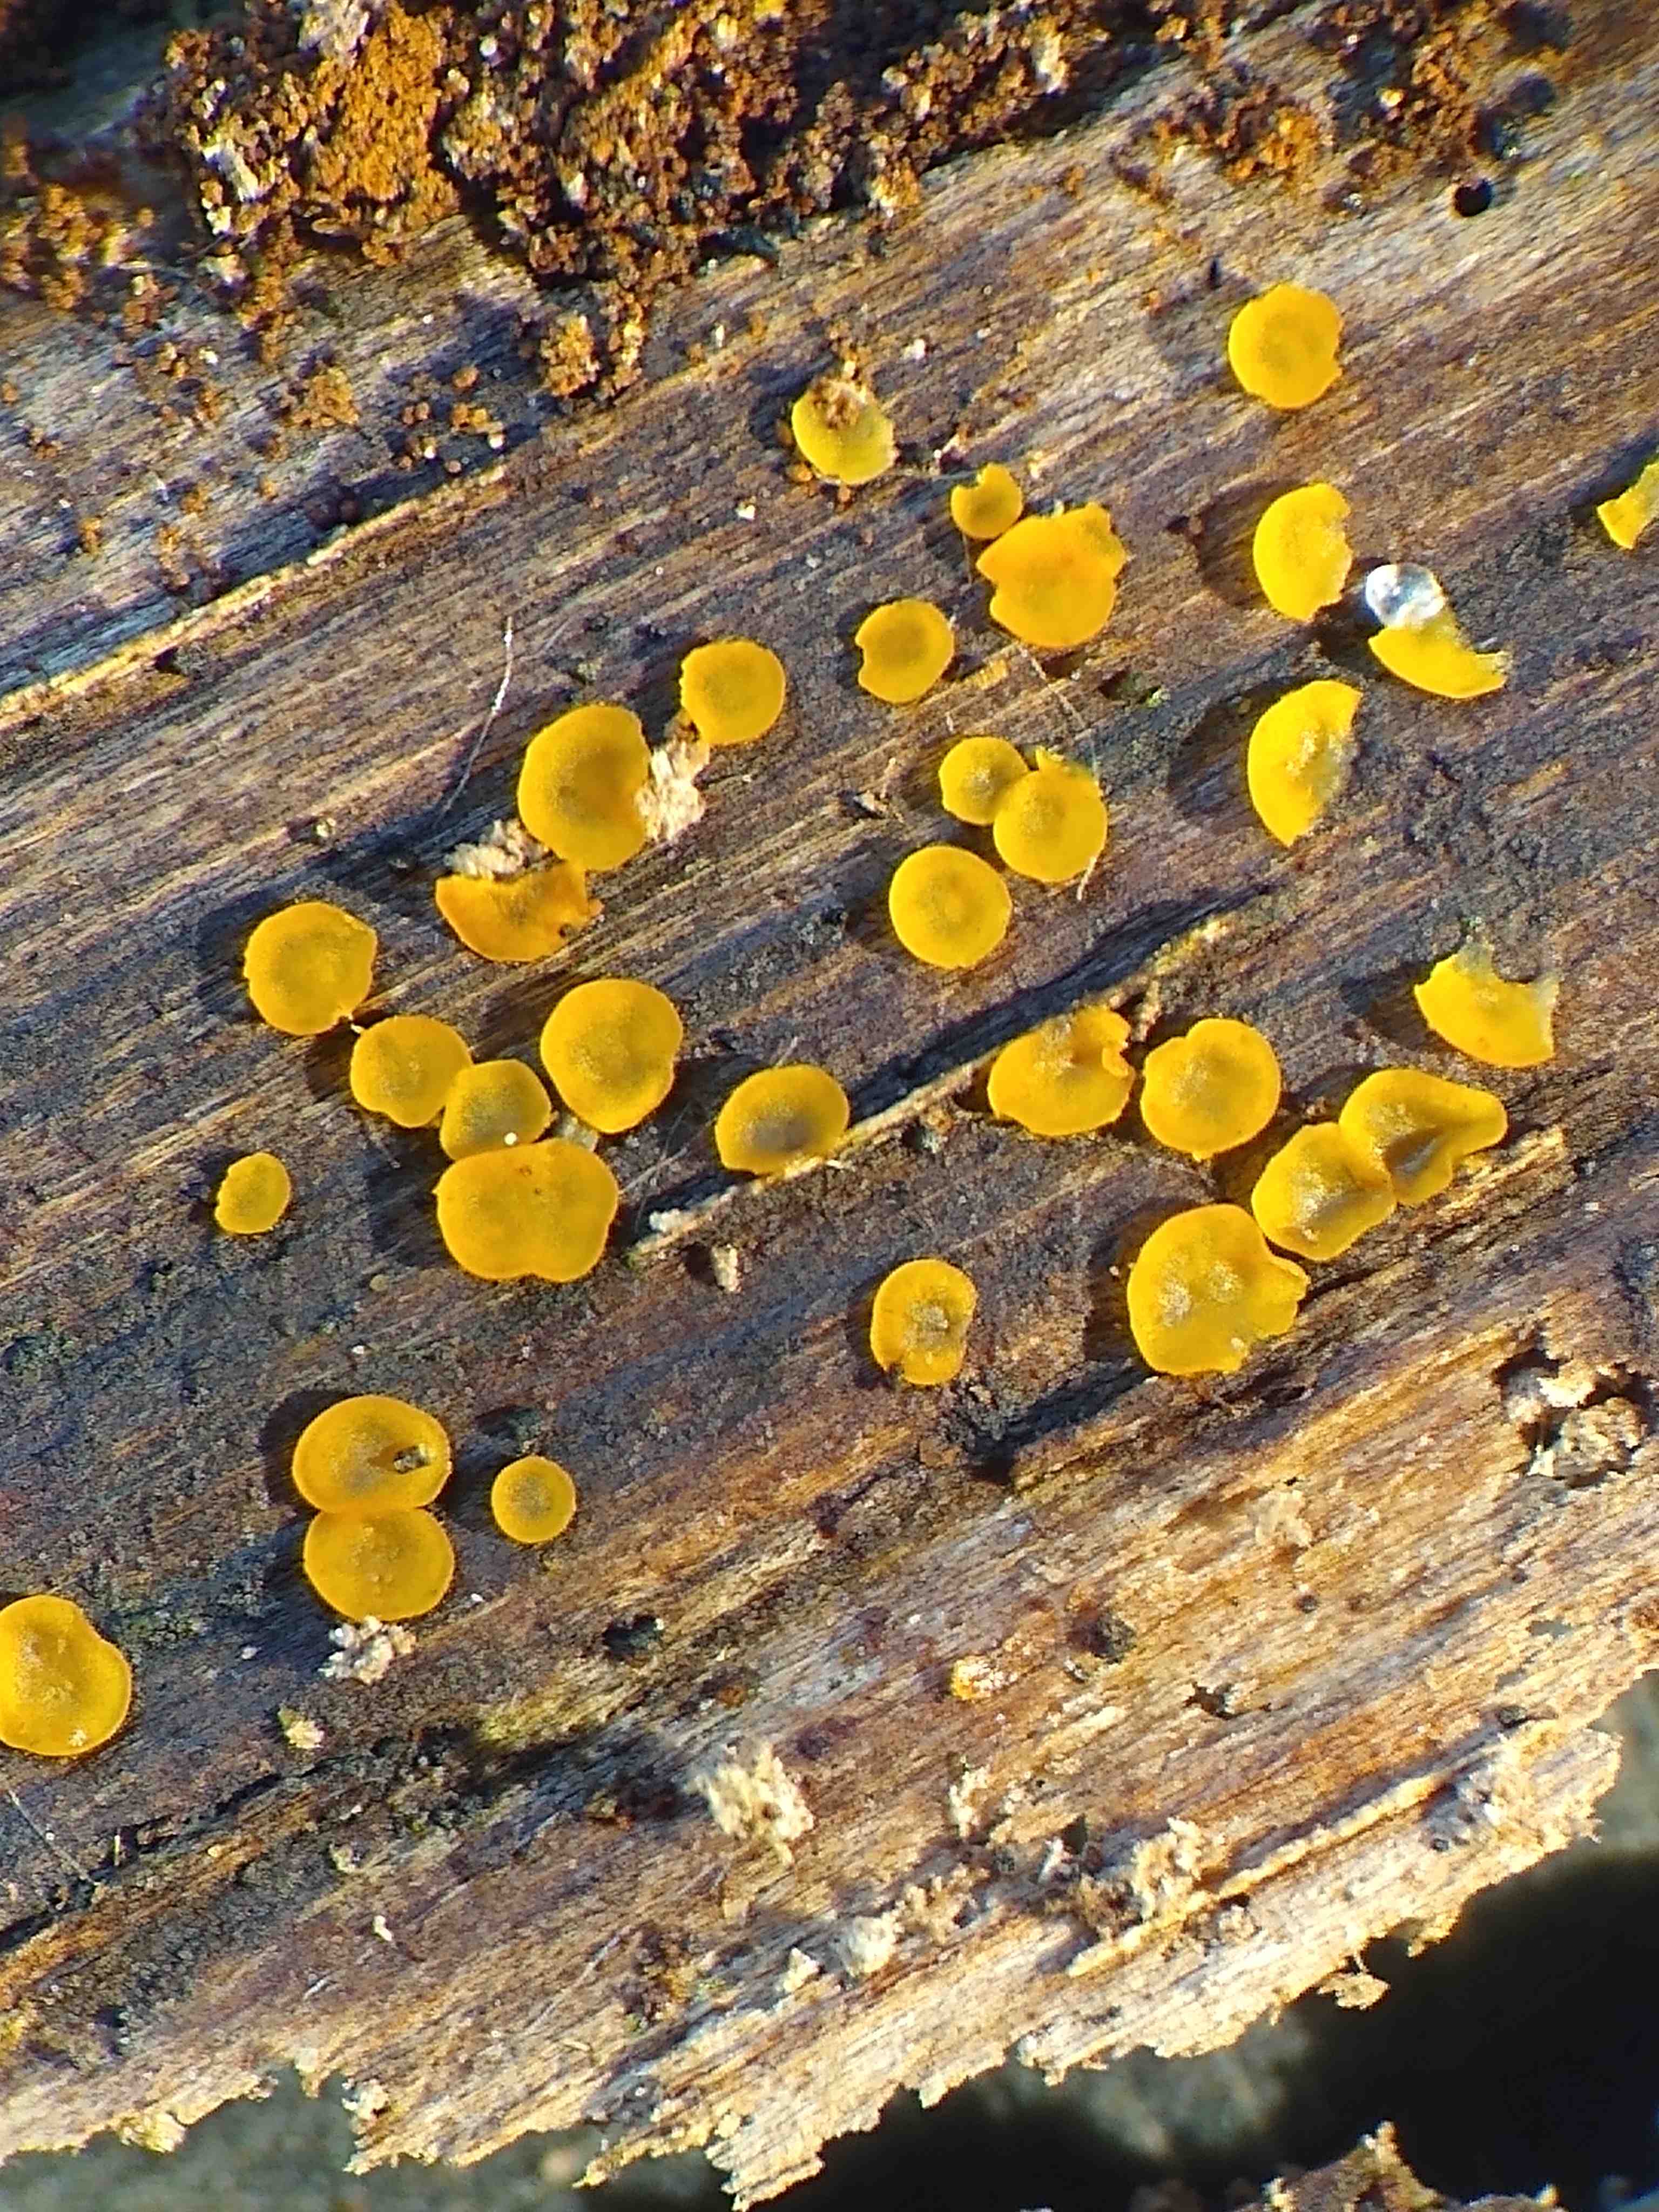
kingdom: Fungi
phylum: Ascomycota
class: Orbiliomycetes
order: Orbiliales
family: Orbiliaceae
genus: Orbilia
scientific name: Orbilia xanthostigma
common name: krumsporet voksskive
